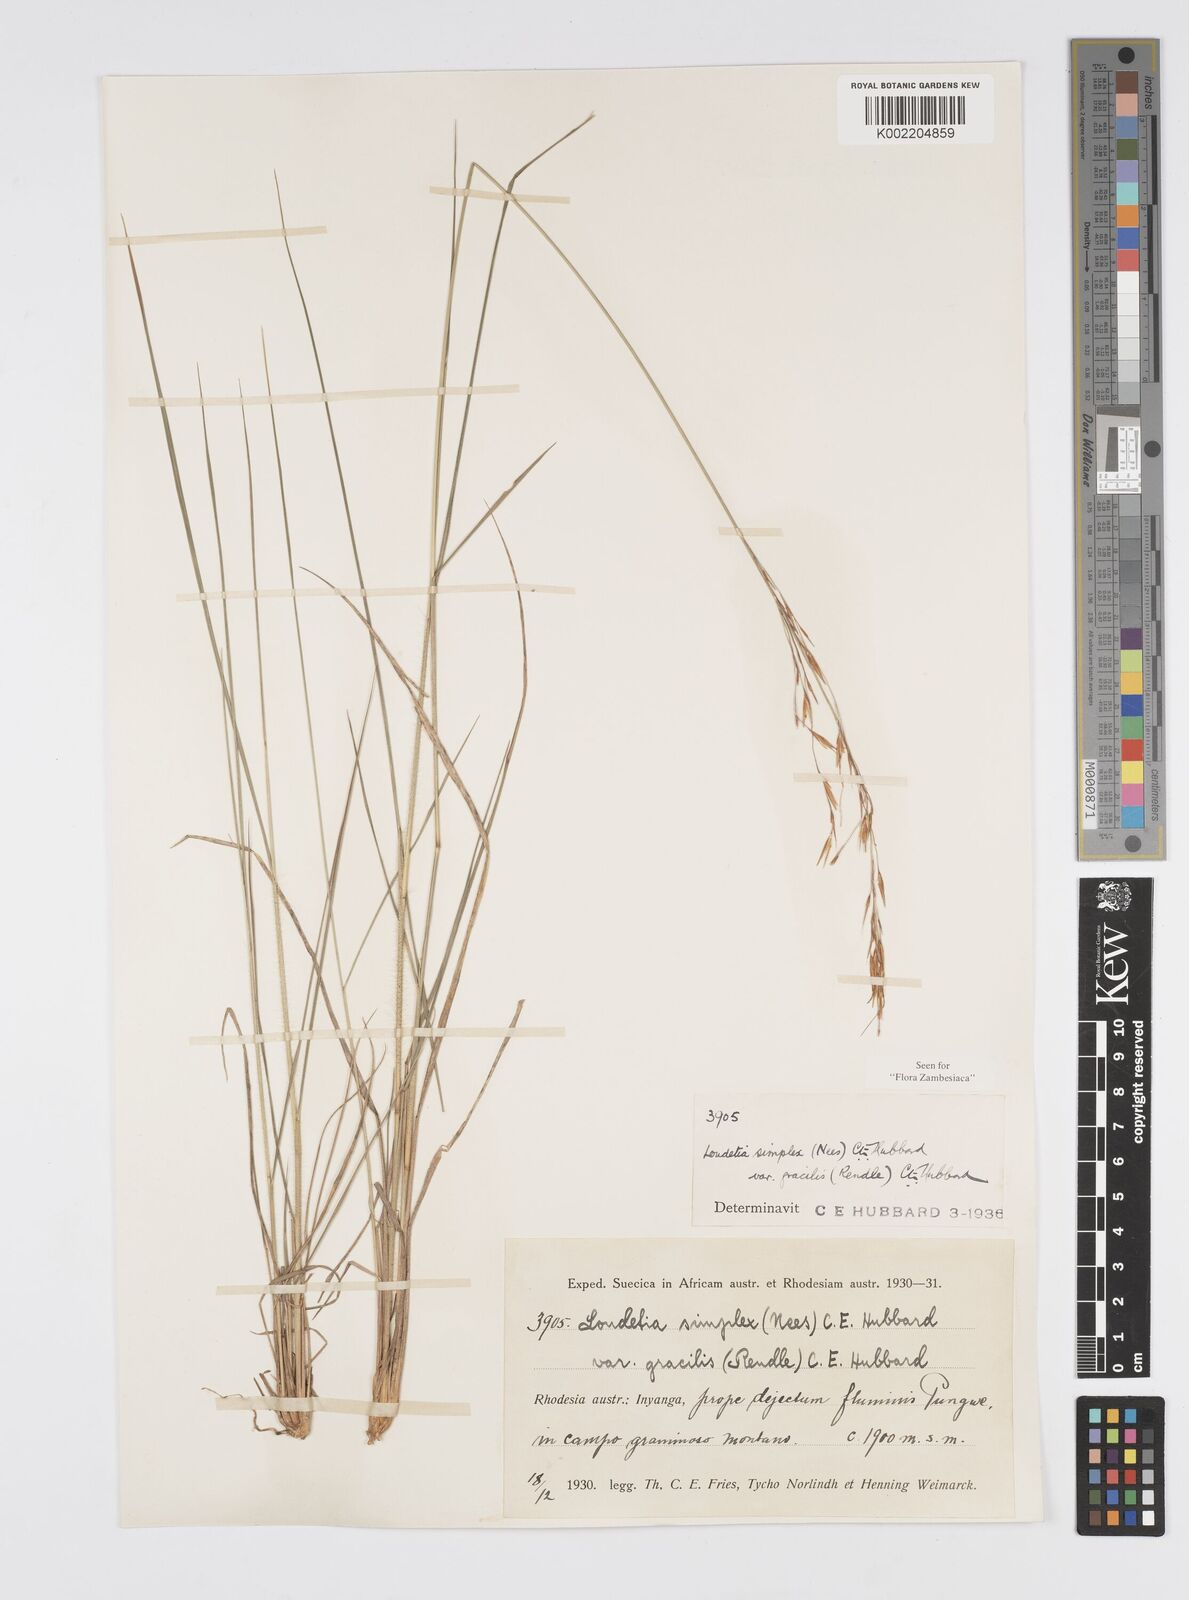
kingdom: Plantae
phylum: Tracheophyta
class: Liliopsida
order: Poales
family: Poaceae
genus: Loudetia
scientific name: Loudetia simplex
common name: Common russet grass
